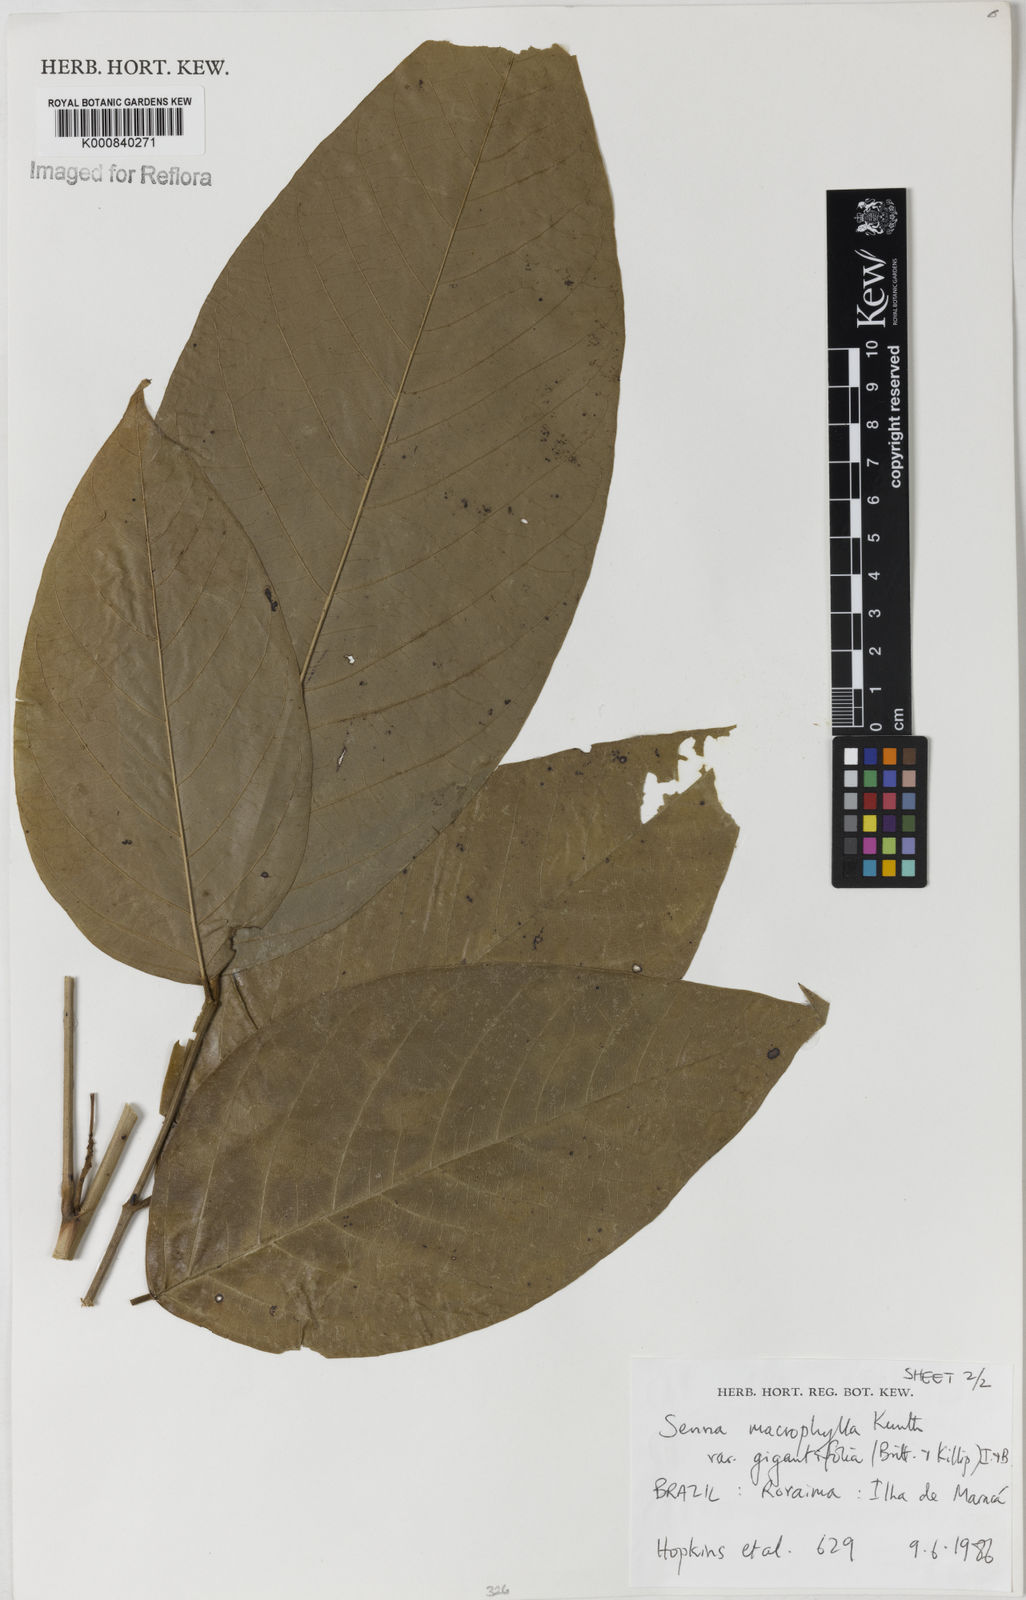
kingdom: Plantae
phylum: Tracheophyta
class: Magnoliopsida
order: Fabales
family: Fabaceae
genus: Senna
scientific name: Senna macrophylla
